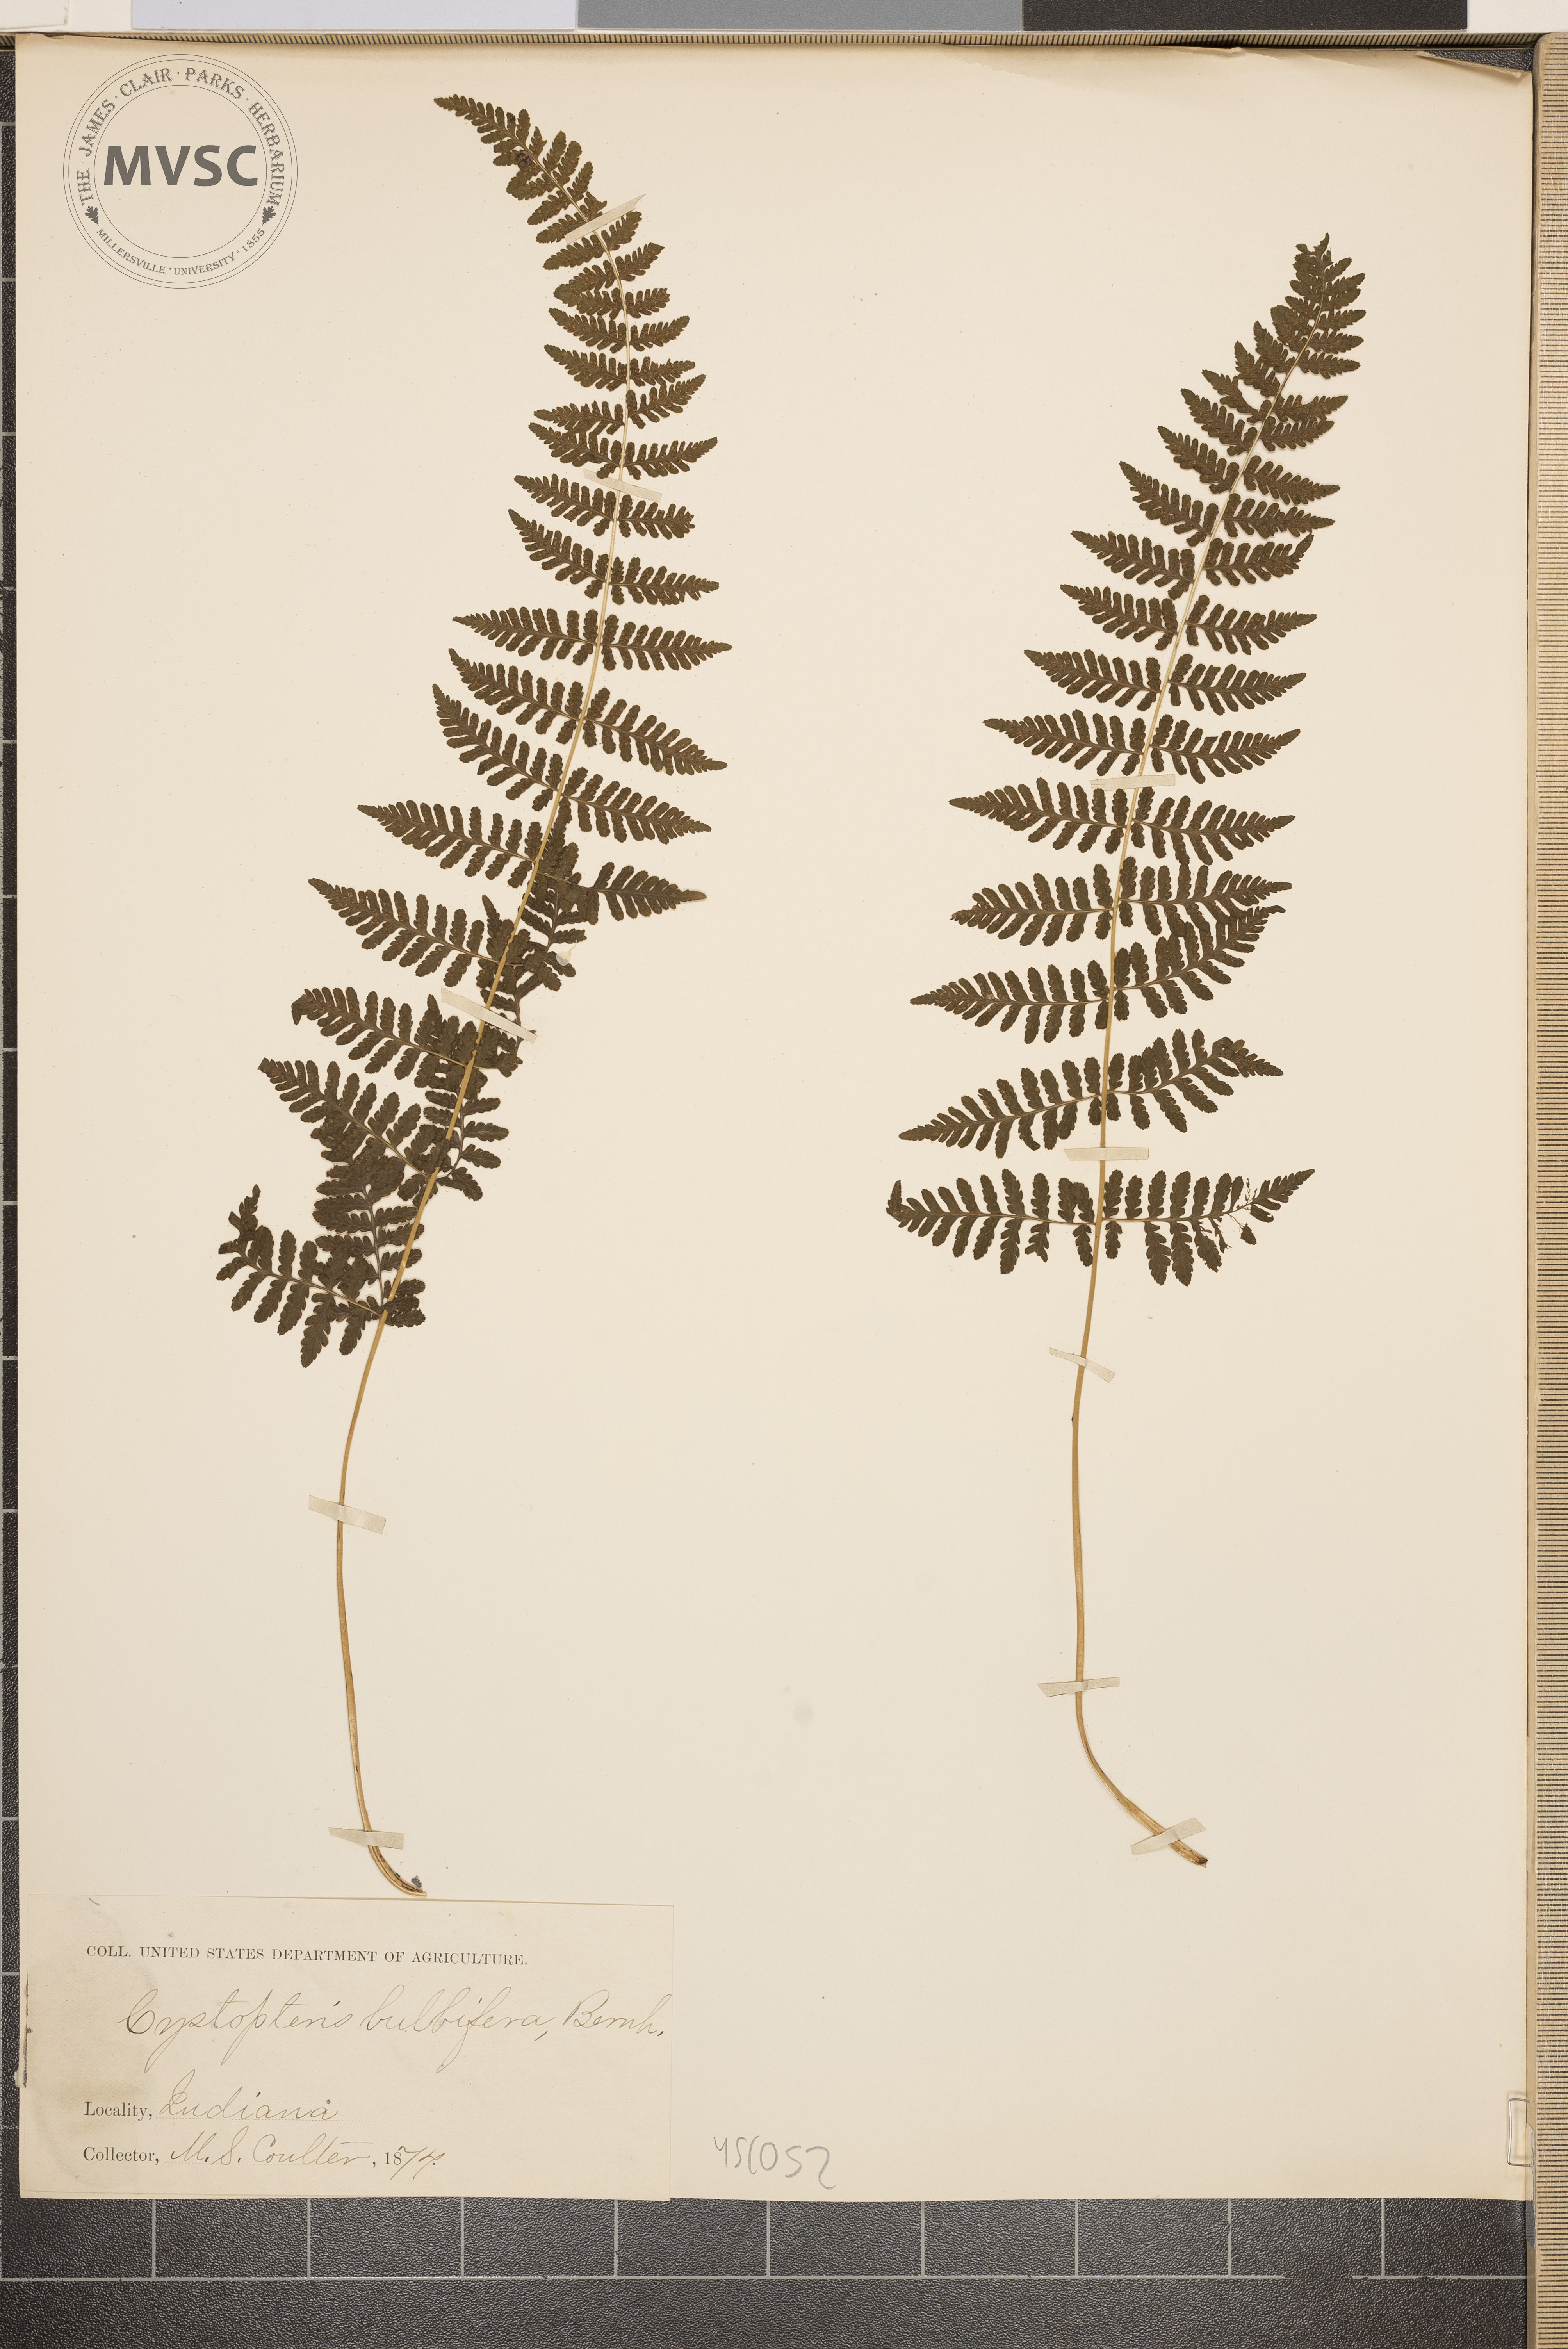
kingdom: Plantae
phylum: Tracheophyta
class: Polypodiopsida
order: Polypodiales
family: Cystopteridaceae
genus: Cystopteris
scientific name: Cystopteris bulbifera
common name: Bulblet bladder fern
